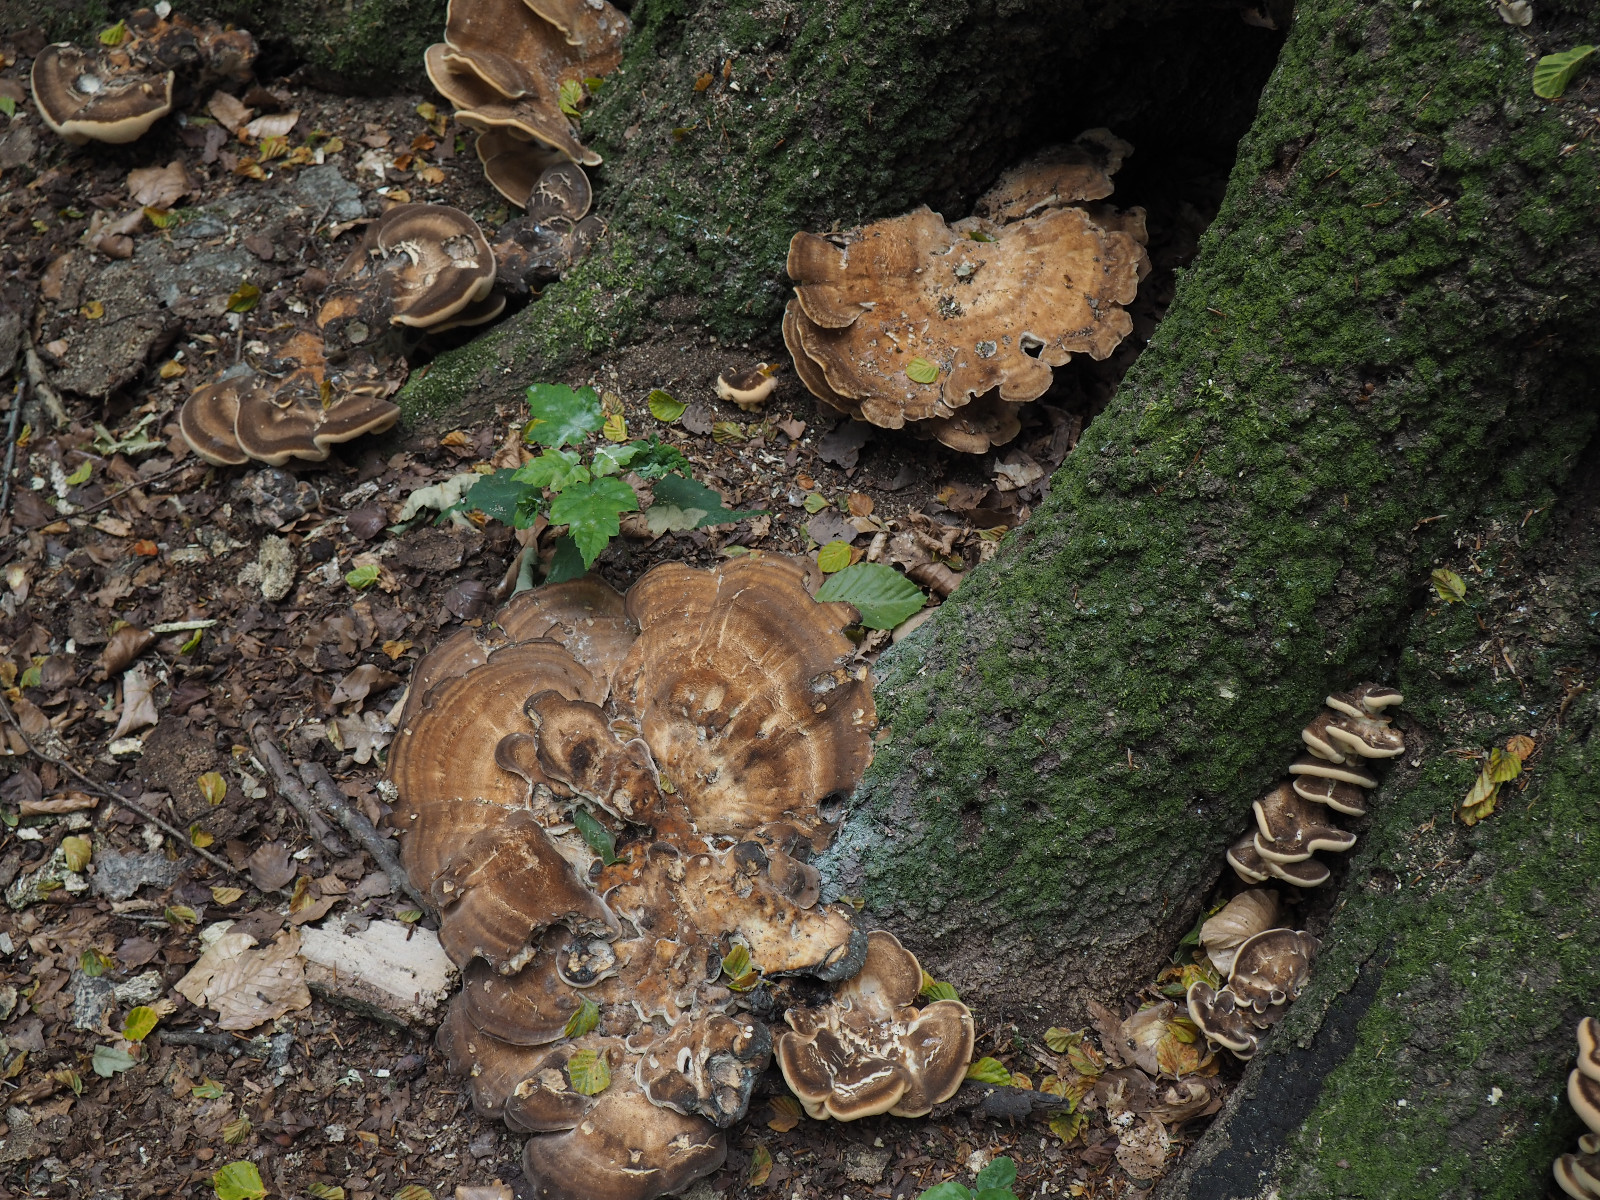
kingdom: Fungi
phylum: Basidiomycota
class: Agaricomycetes
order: Polyporales
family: Meripilaceae
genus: Meripilus
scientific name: Meripilus giganteus
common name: kæmpeporesvamp
